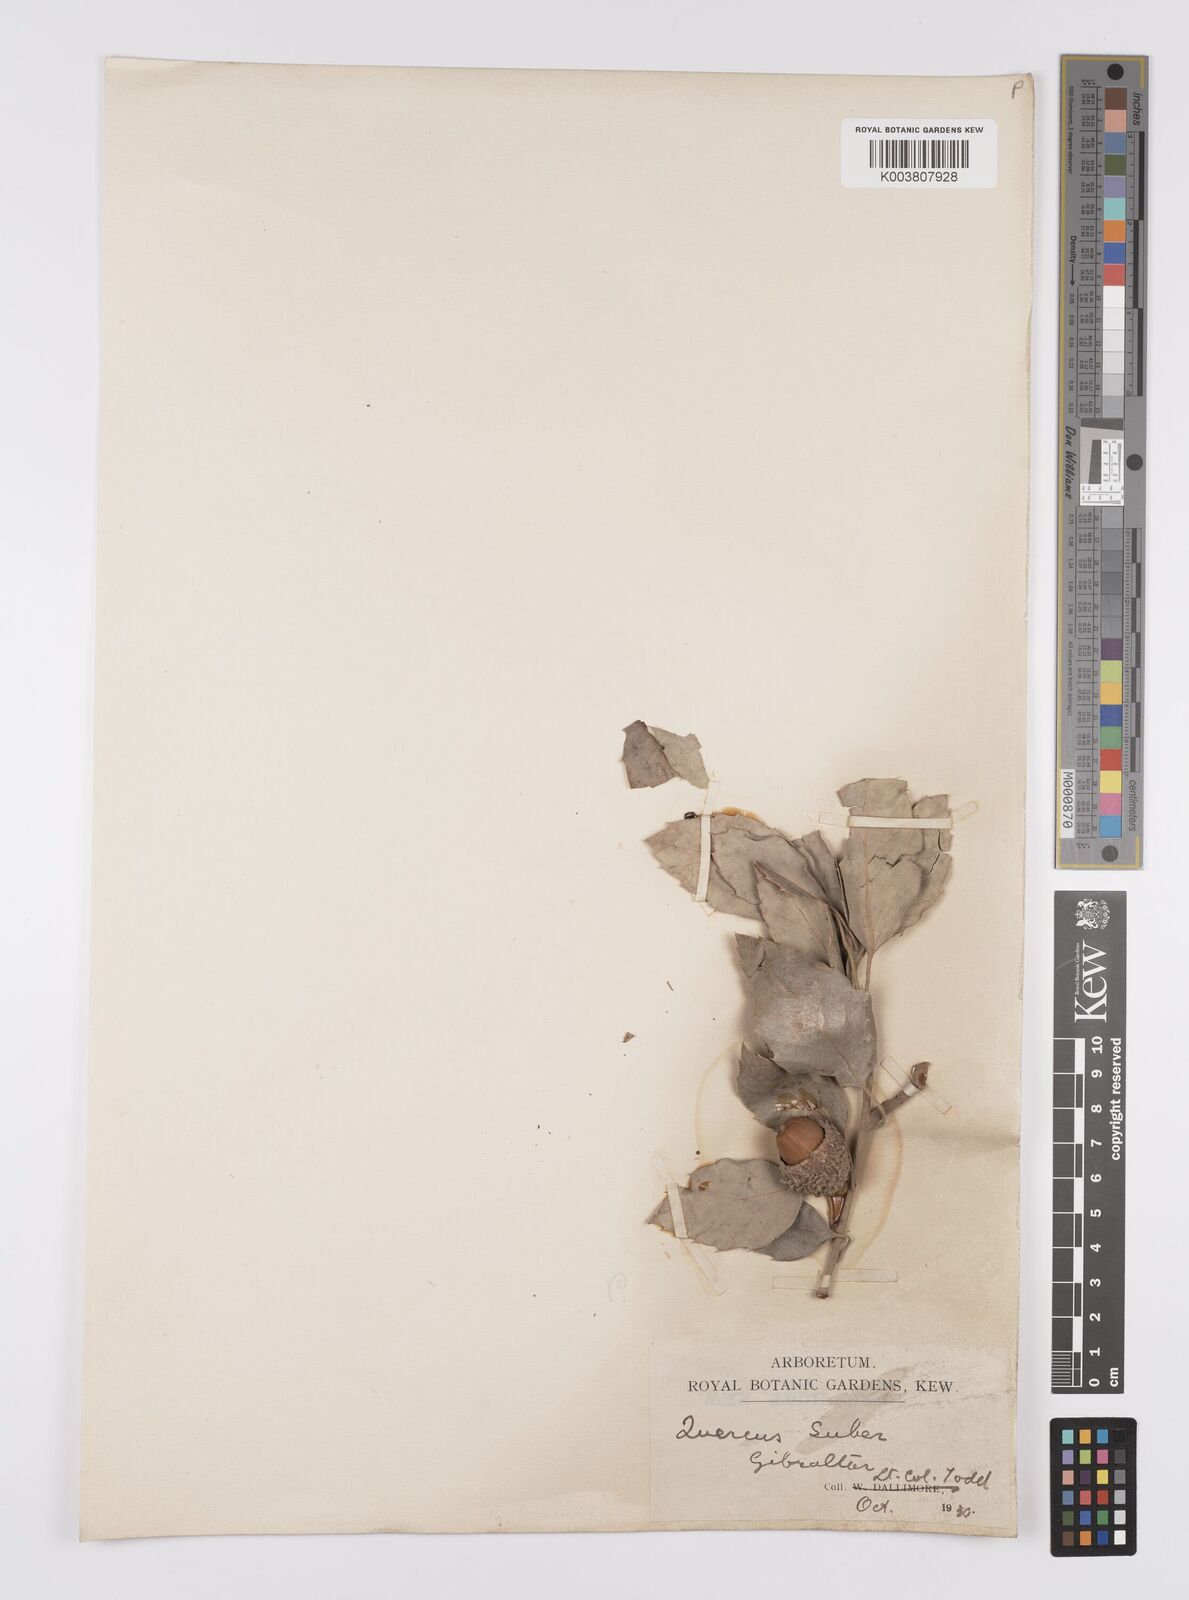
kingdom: Plantae
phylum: Tracheophyta
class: Magnoliopsida
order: Fagales
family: Fagaceae
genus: Quercus
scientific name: Quercus suber
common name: Cork oak
